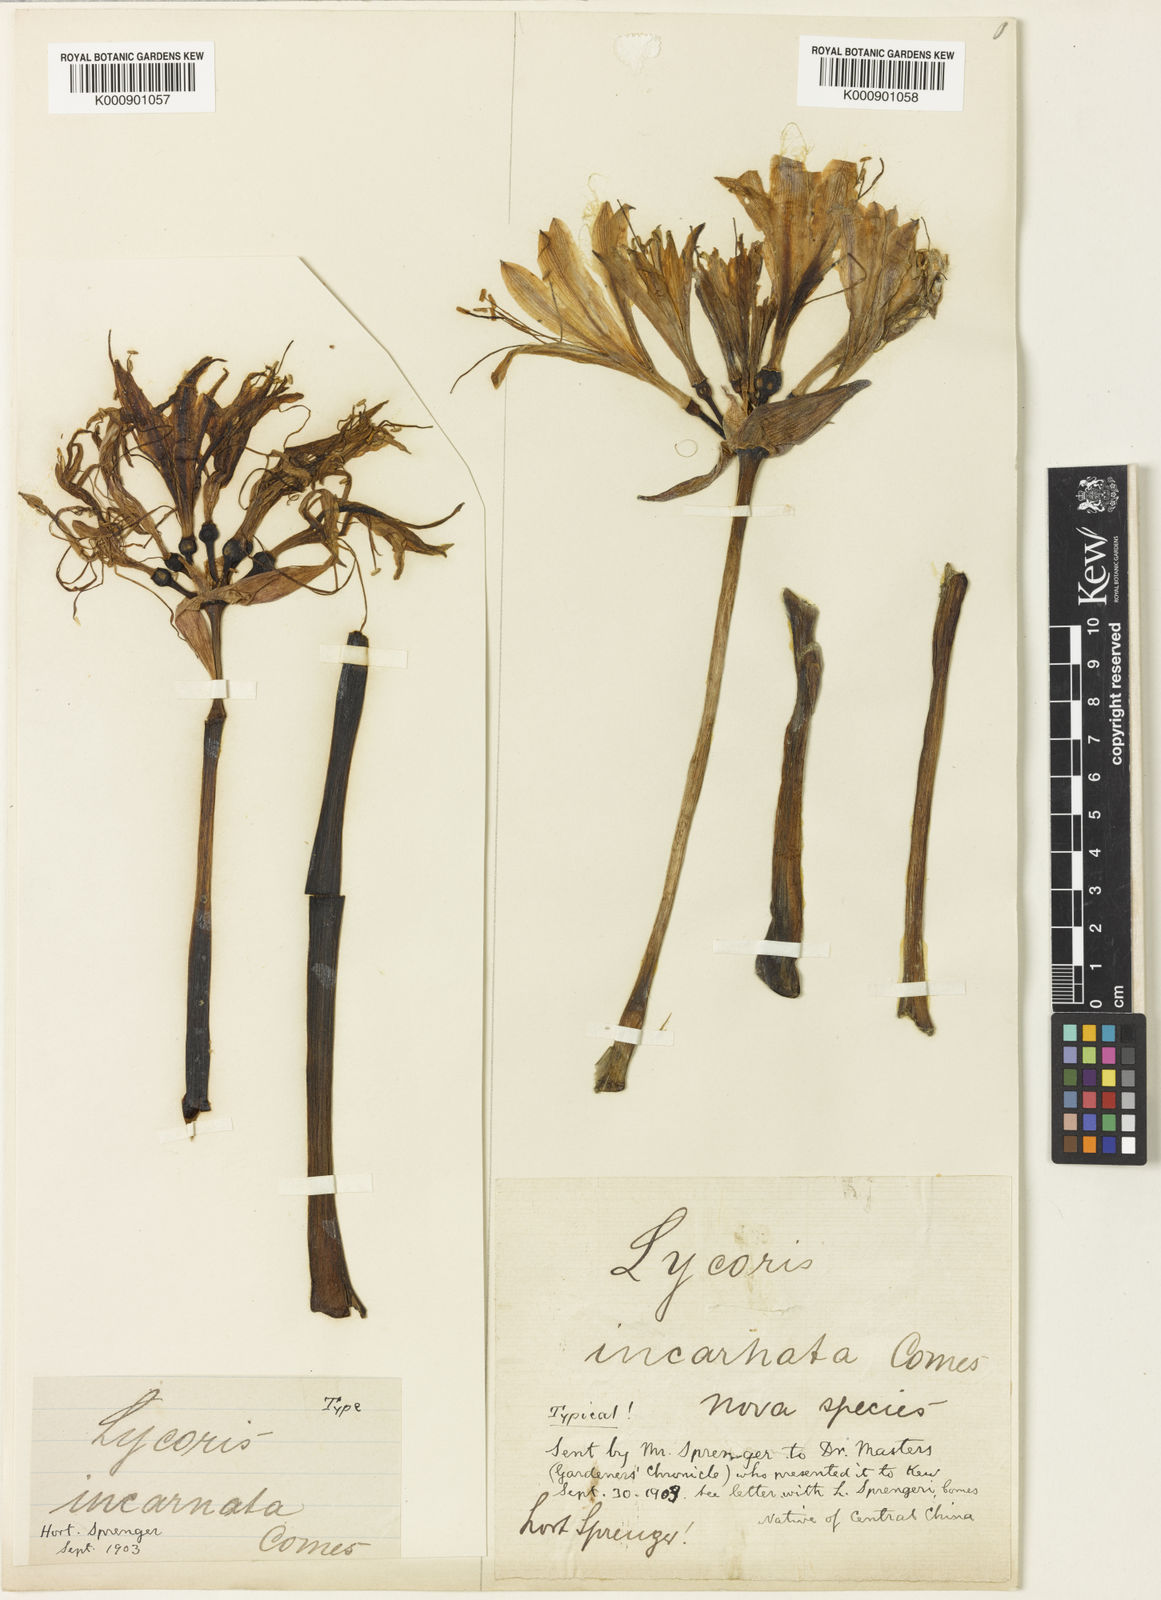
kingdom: Plantae
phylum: Tracheophyta
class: Liliopsida
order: Asparagales
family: Amaryllidaceae
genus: Lycoris
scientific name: Lycoris incarnata
